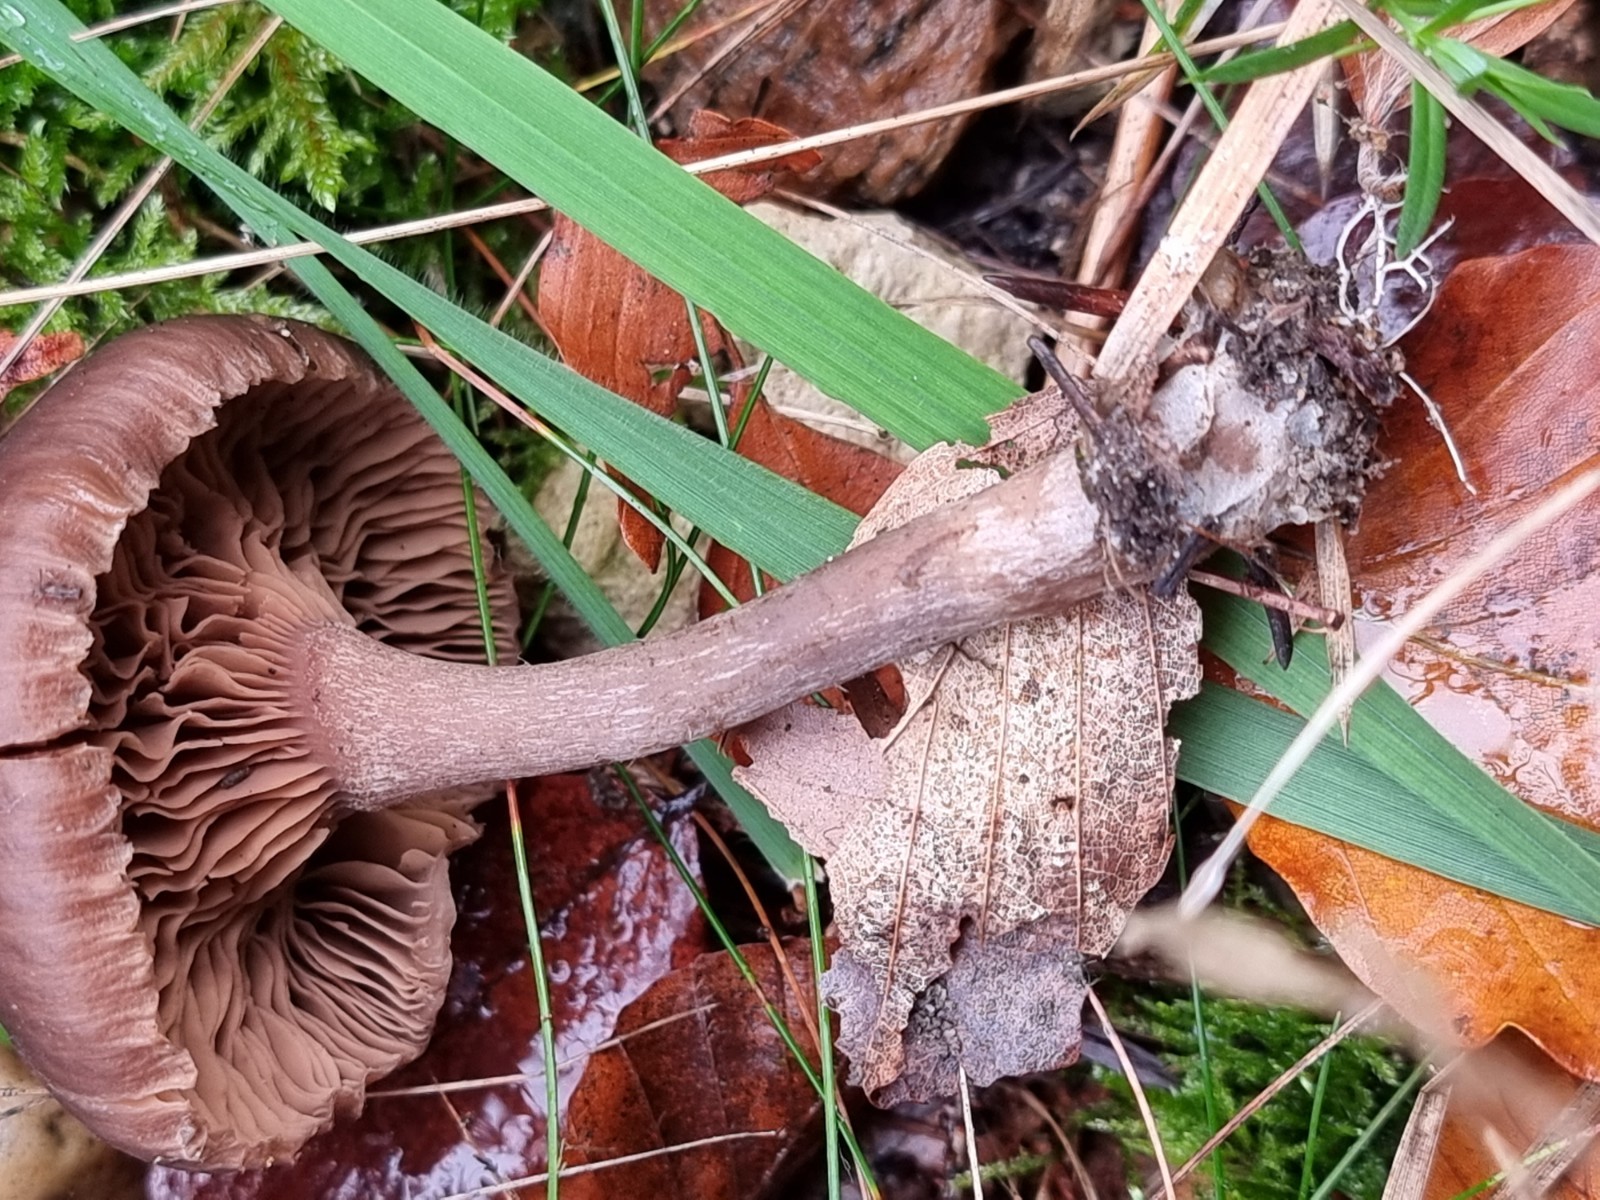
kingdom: Fungi
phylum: Basidiomycota
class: Agaricomycetes
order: Agaricales
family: Pseudoclitocybaceae
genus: Pseudoclitocybe
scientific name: Pseudoclitocybe cyathiformis
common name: almindelig bægertragthat
